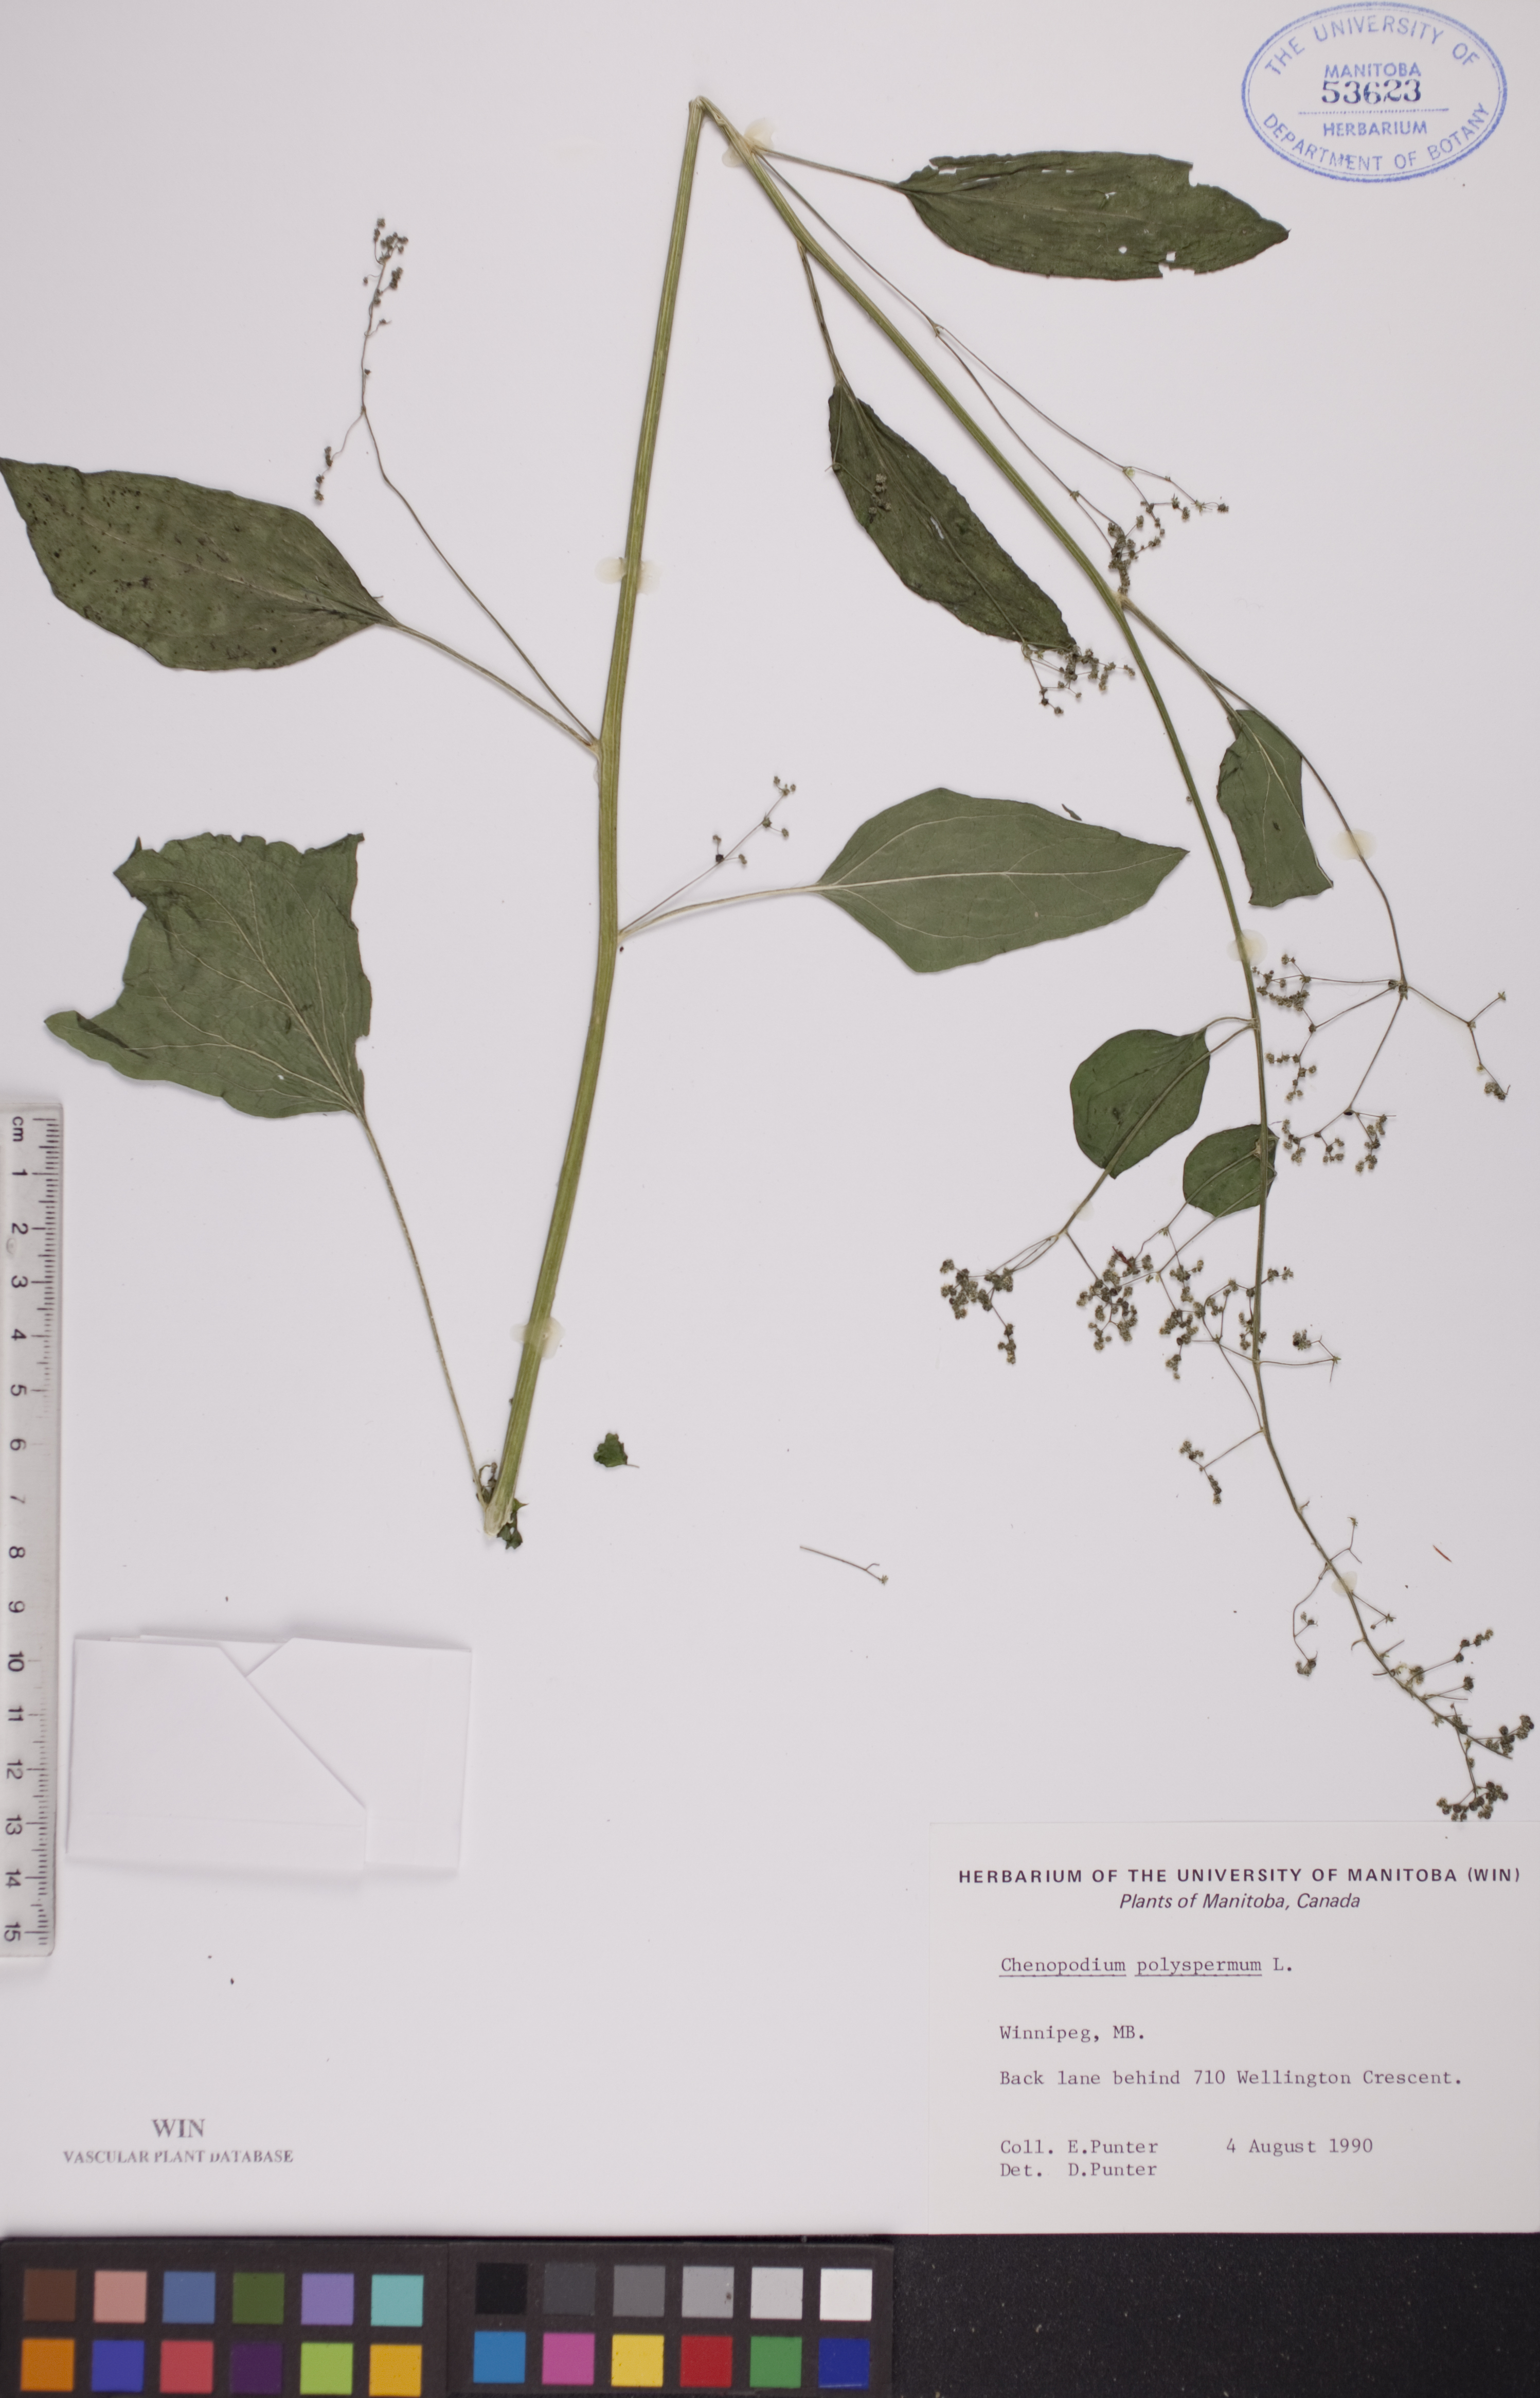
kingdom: Plantae
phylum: Tracheophyta
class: Magnoliopsida
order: Caryophyllales
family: Amaranthaceae
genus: Lipandra
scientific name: Lipandra polysperma
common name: Many-seed goosefoot
